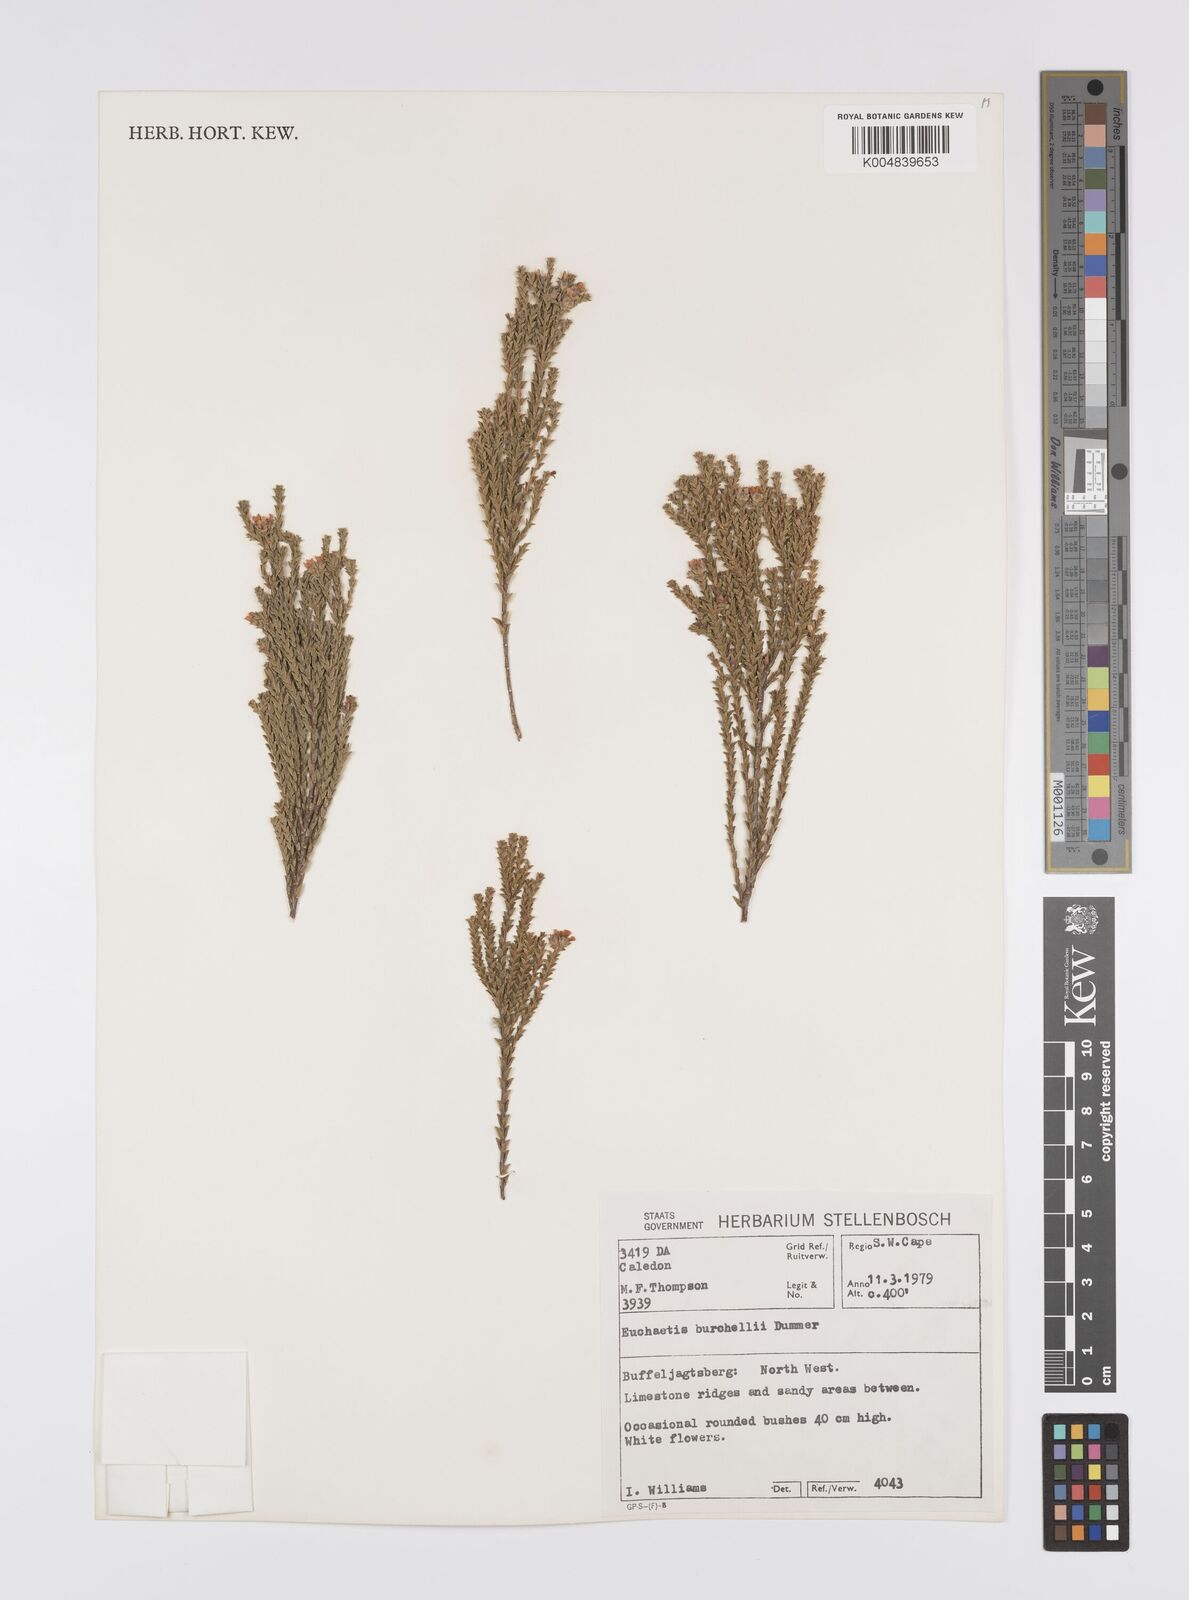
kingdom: Plantae
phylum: Tracheophyta
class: Magnoliopsida
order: Sapindales
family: Rutaceae
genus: Euchaetis
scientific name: Euchaetis burchellii
